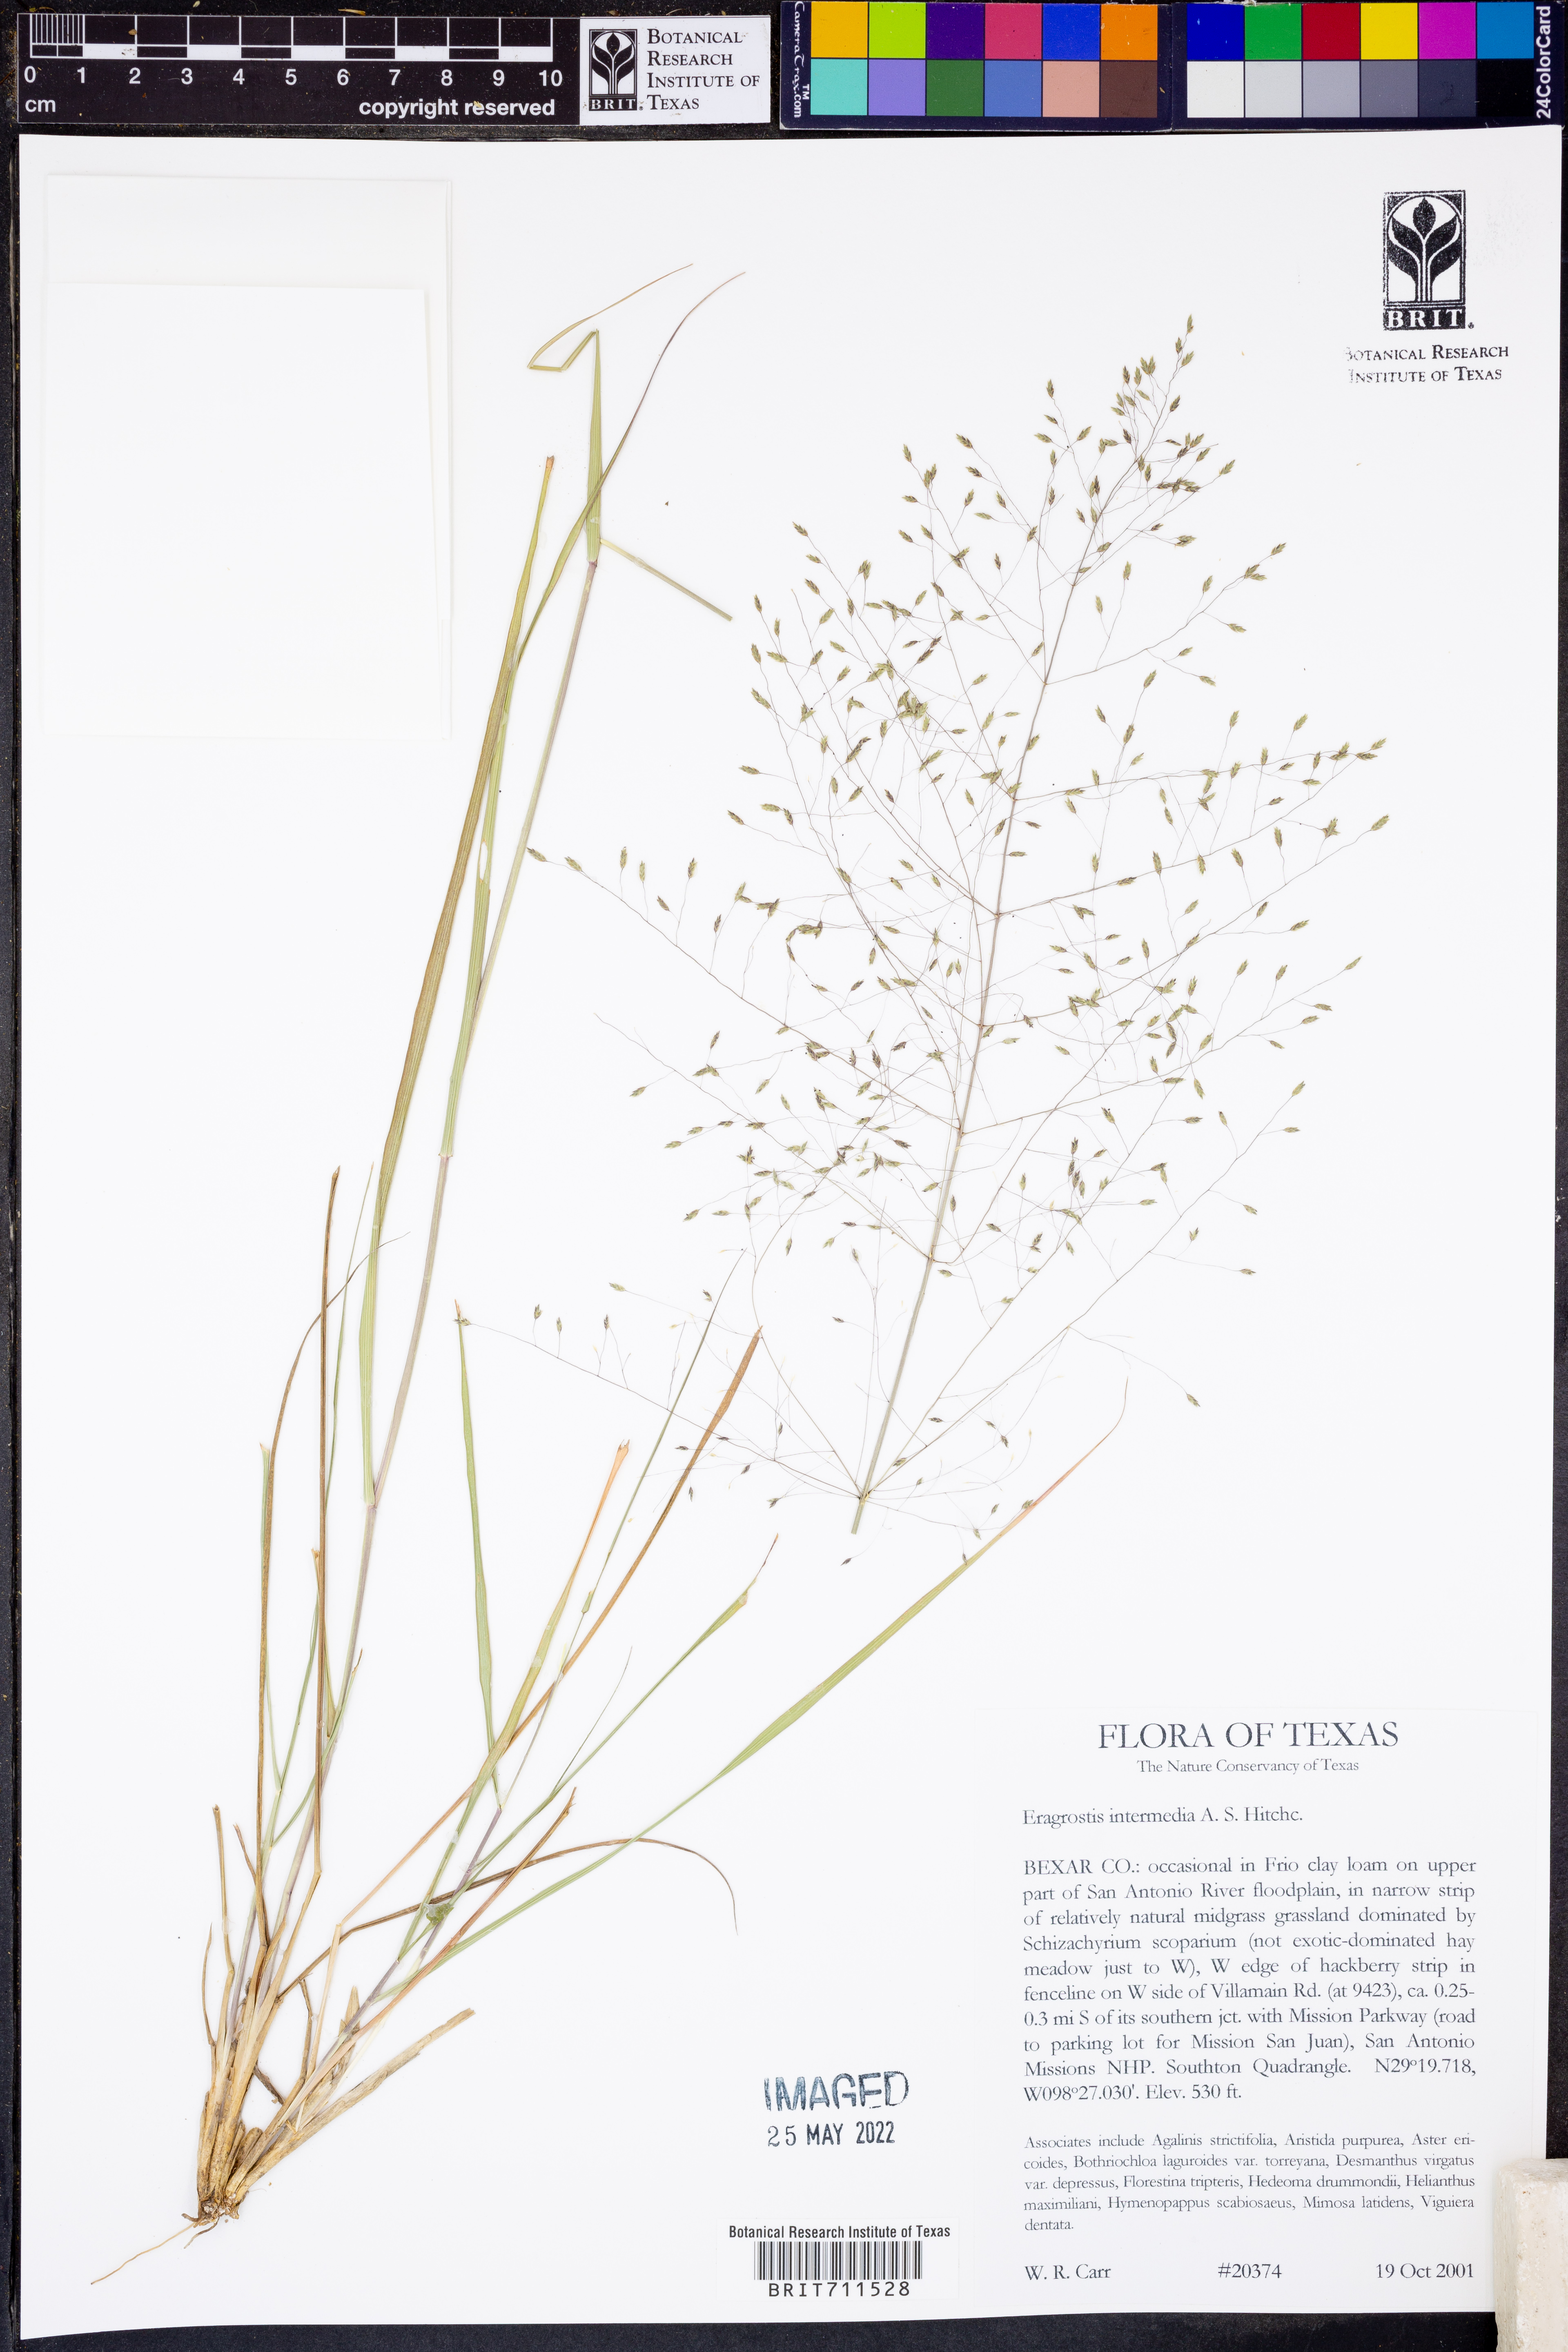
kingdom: Plantae
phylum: Tracheophyta
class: Liliopsida
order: Poales
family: Poaceae
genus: Eragrostis
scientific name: Eragrostis intermedia
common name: Plains love grass
